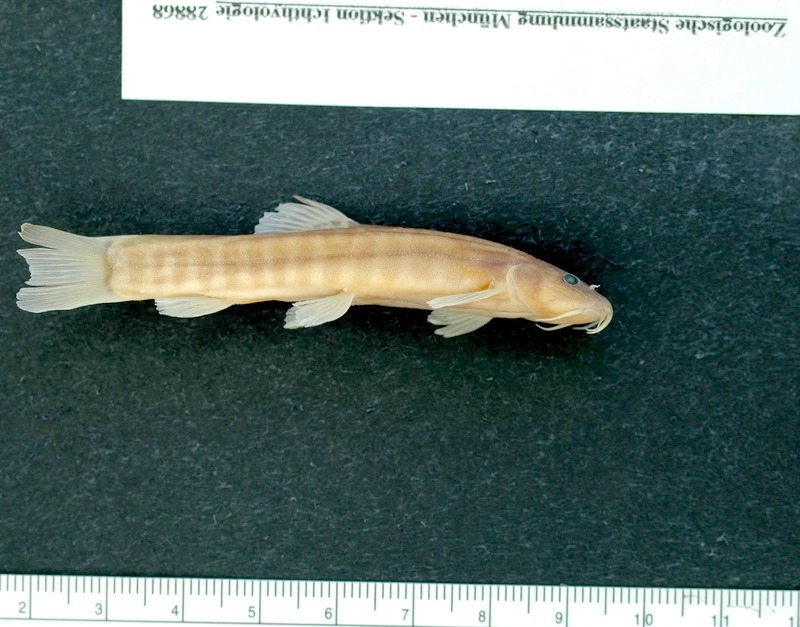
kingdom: Animalia
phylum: Chordata
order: Cypriniformes
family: Nemacheilidae
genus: Schistura
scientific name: Schistura sokolovi
